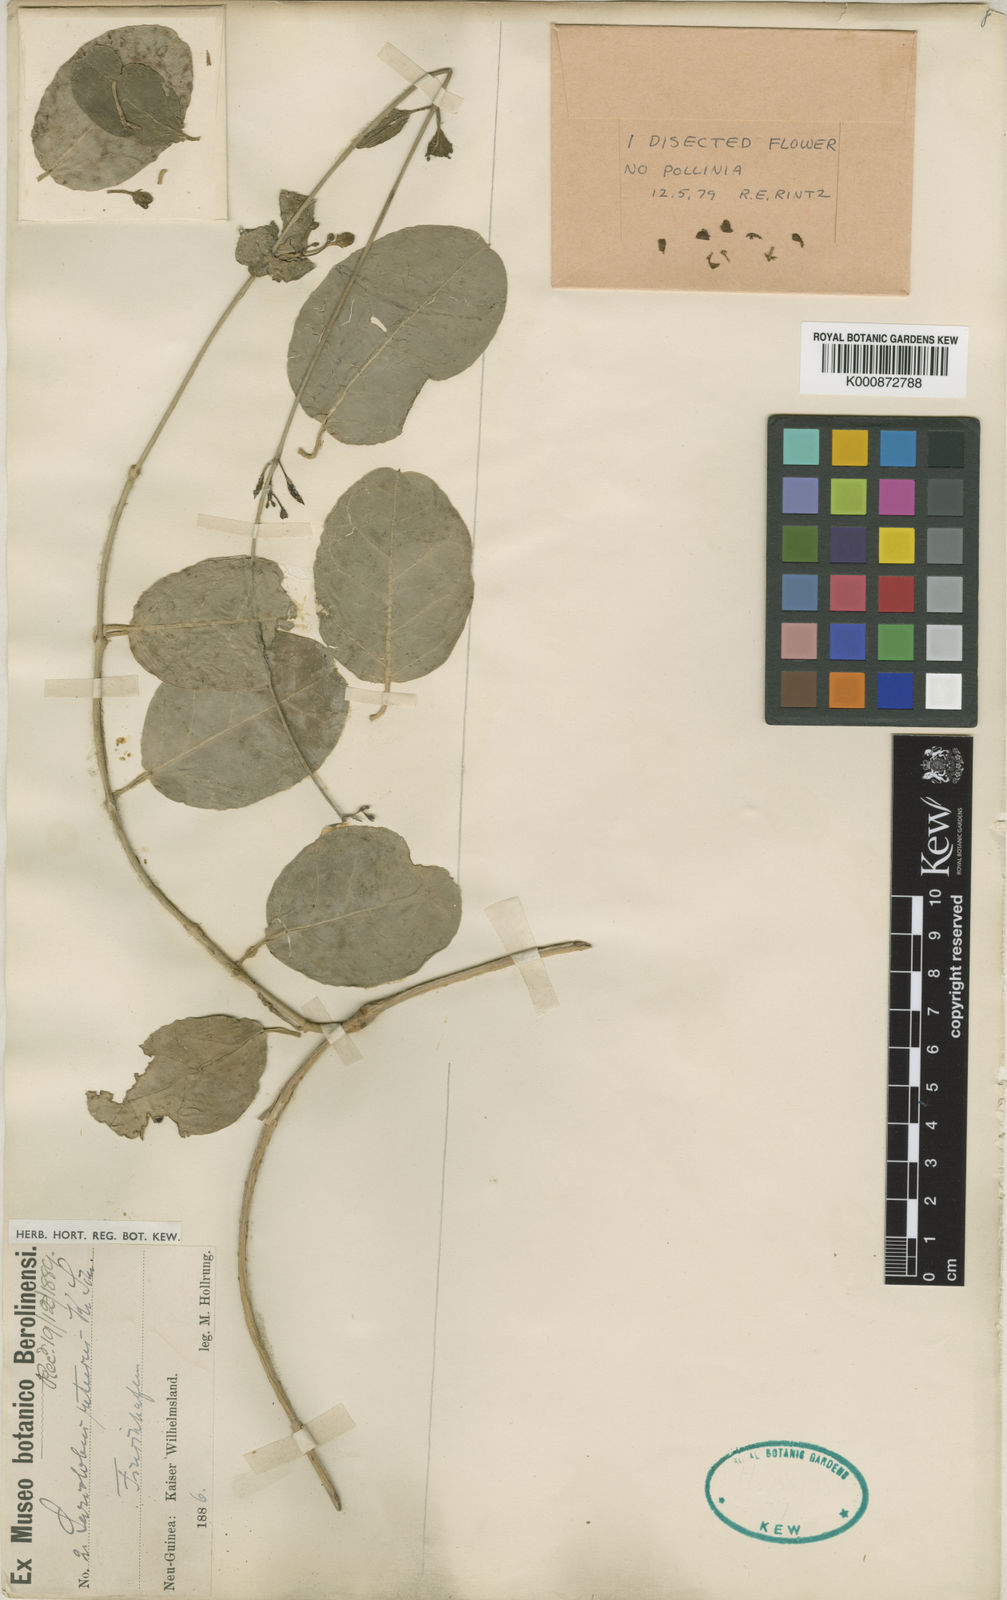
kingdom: Plantae
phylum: Tracheophyta
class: Magnoliopsida
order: Gentianales
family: Apocynaceae
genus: Sarcolobus
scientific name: Sarcolobus retusus
